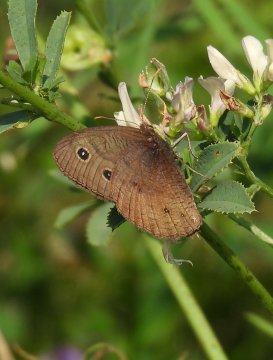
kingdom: Animalia
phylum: Arthropoda
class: Insecta
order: Lepidoptera
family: Nymphalidae
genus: Cercyonis
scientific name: Cercyonis pegala
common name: Common Wood-Nymph
